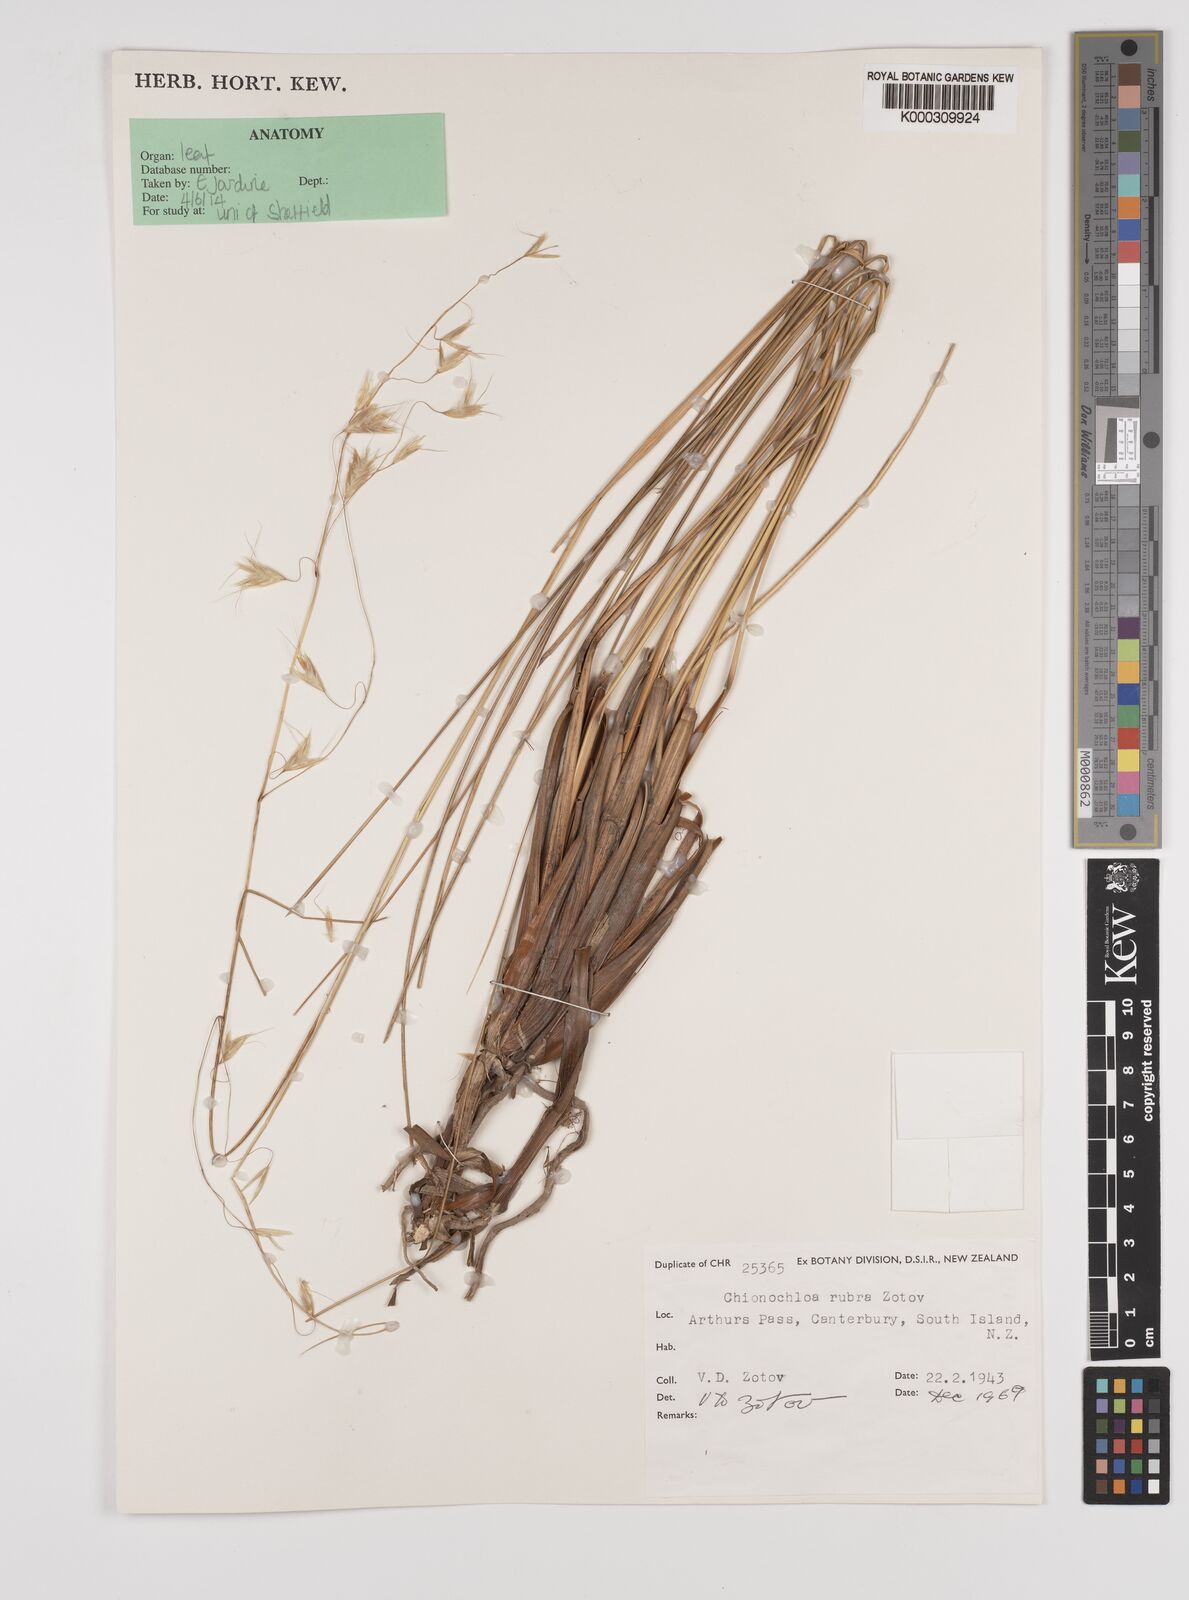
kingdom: Plantae
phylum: Tracheophyta
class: Liliopsida
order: Poales
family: Poaceae
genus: Chionochloa
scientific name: Chionochloa rubra
